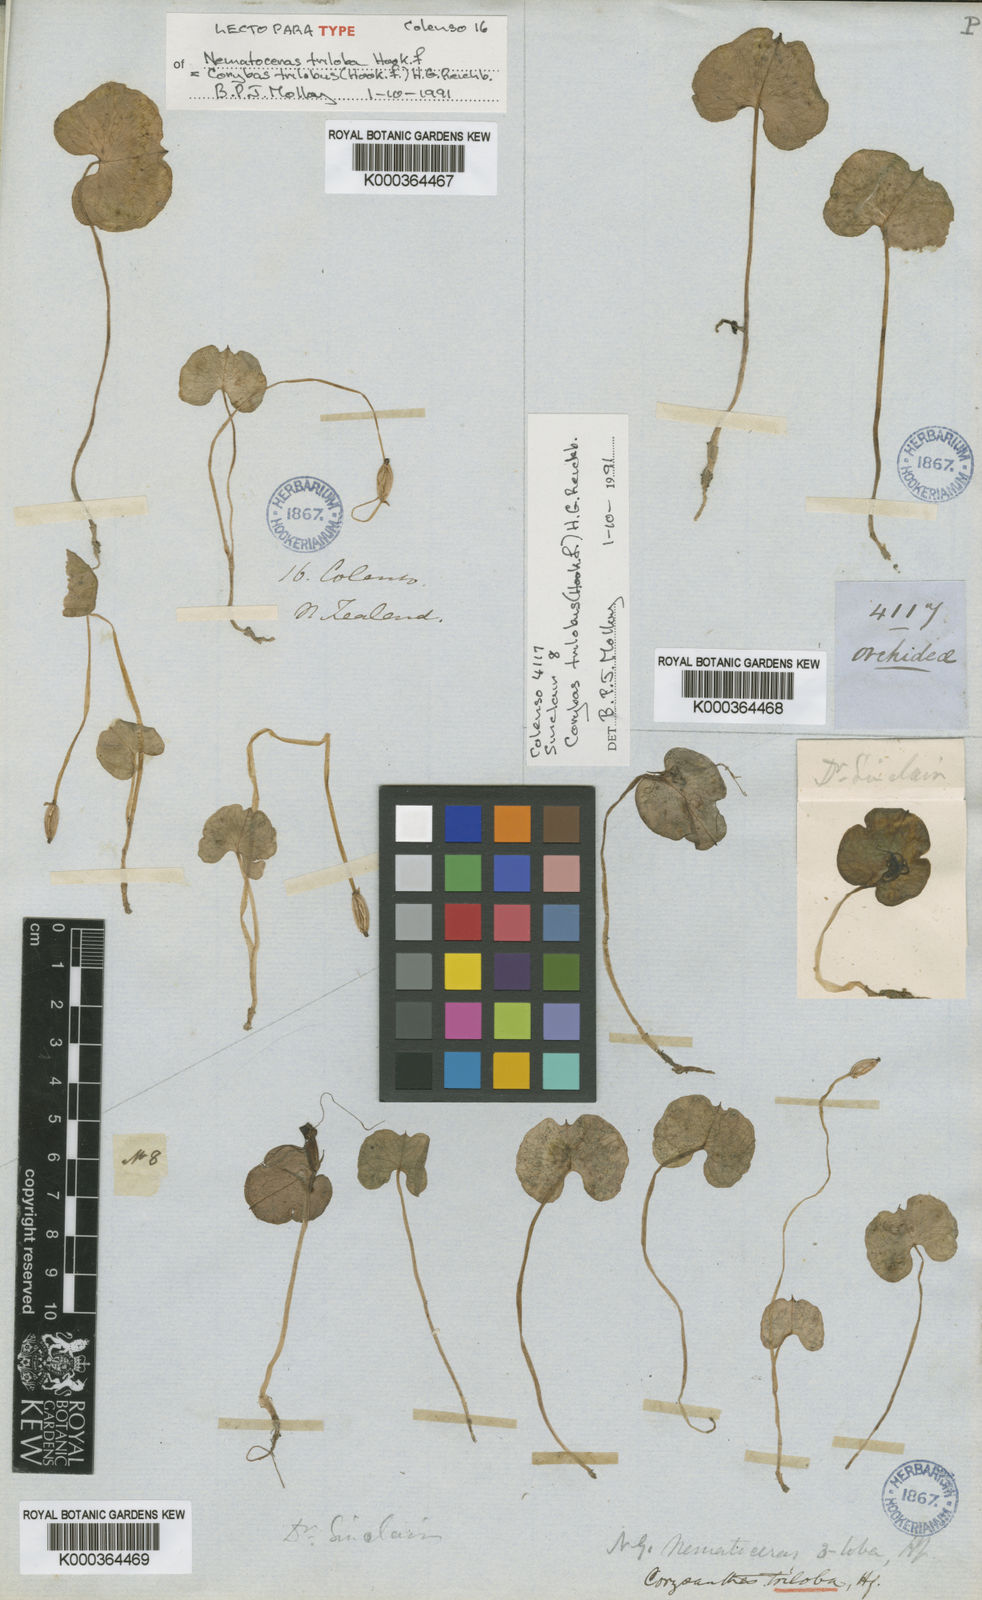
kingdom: Plantae
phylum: Tracheophyta
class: Liliopsida
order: Asparagales
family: Orchidaceae
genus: Corybas
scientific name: Corybas trilobus
